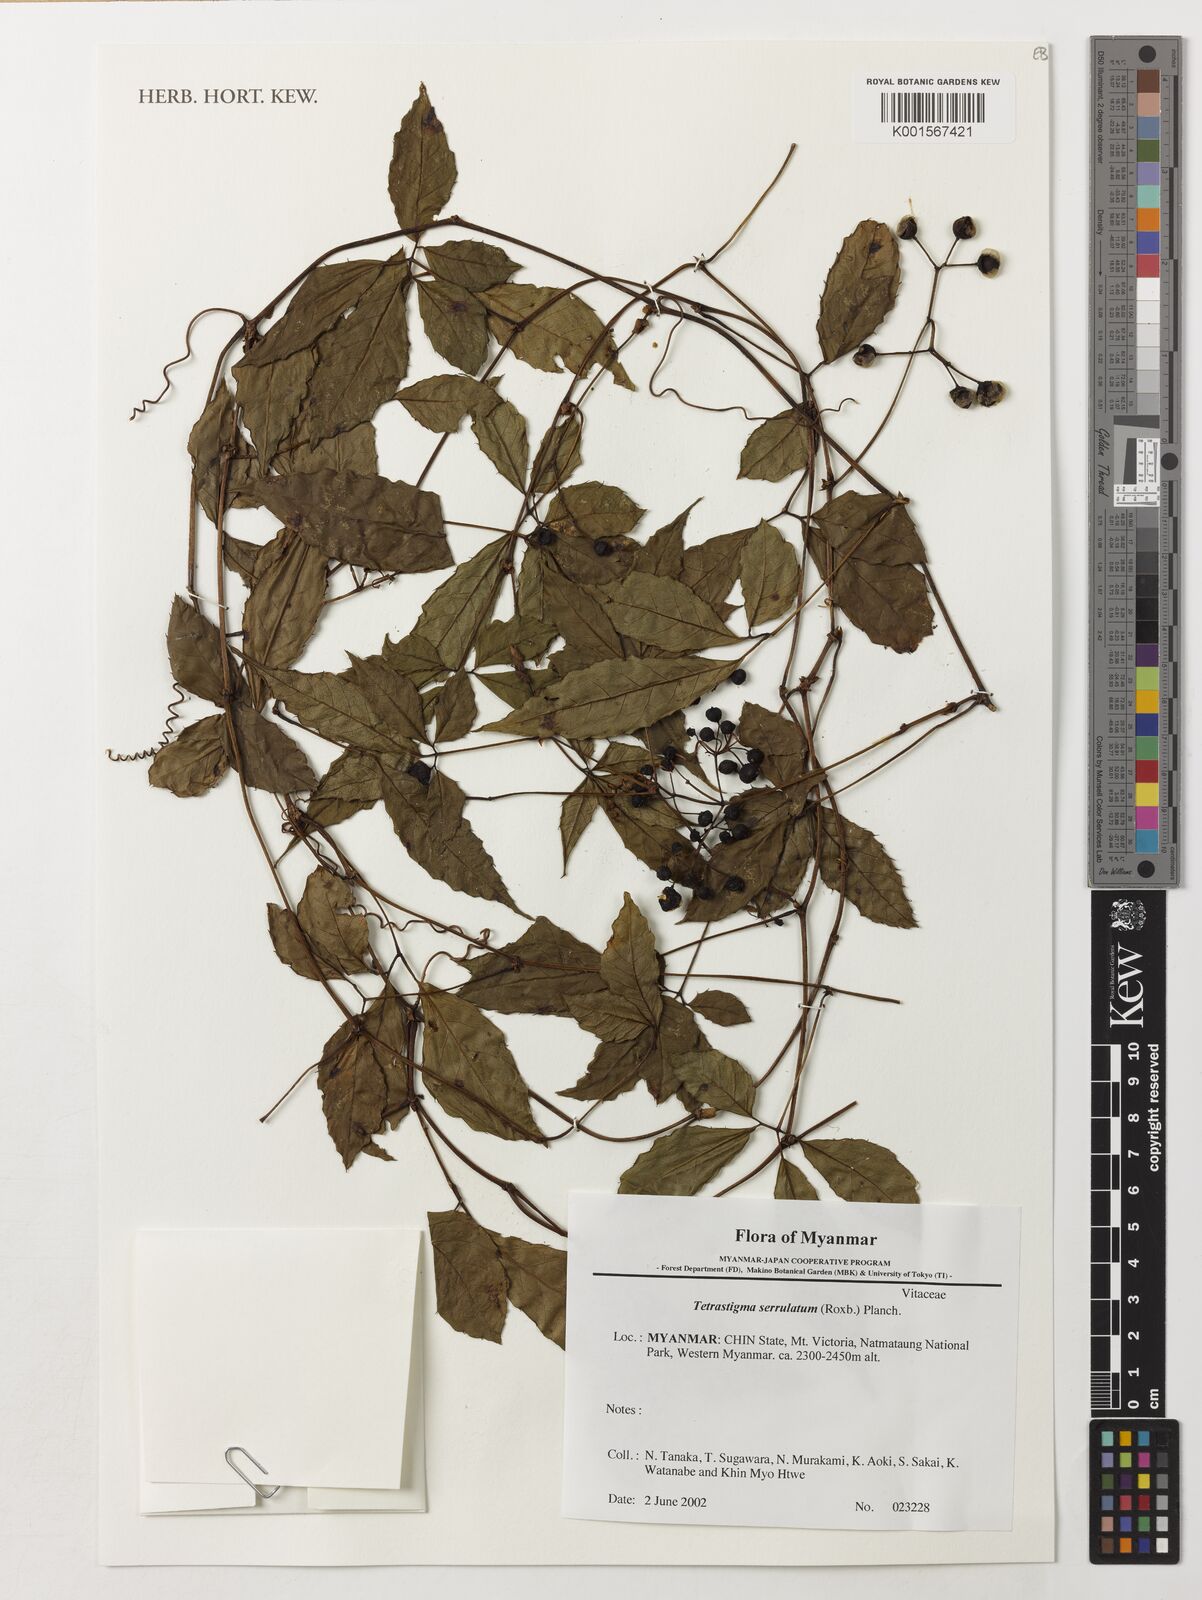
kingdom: Plantae
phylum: Tracheophyta
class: Magnoliopsida
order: Vitales
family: Vitaceae
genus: Tetrastigma
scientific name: Tetrastigma serrulatum
